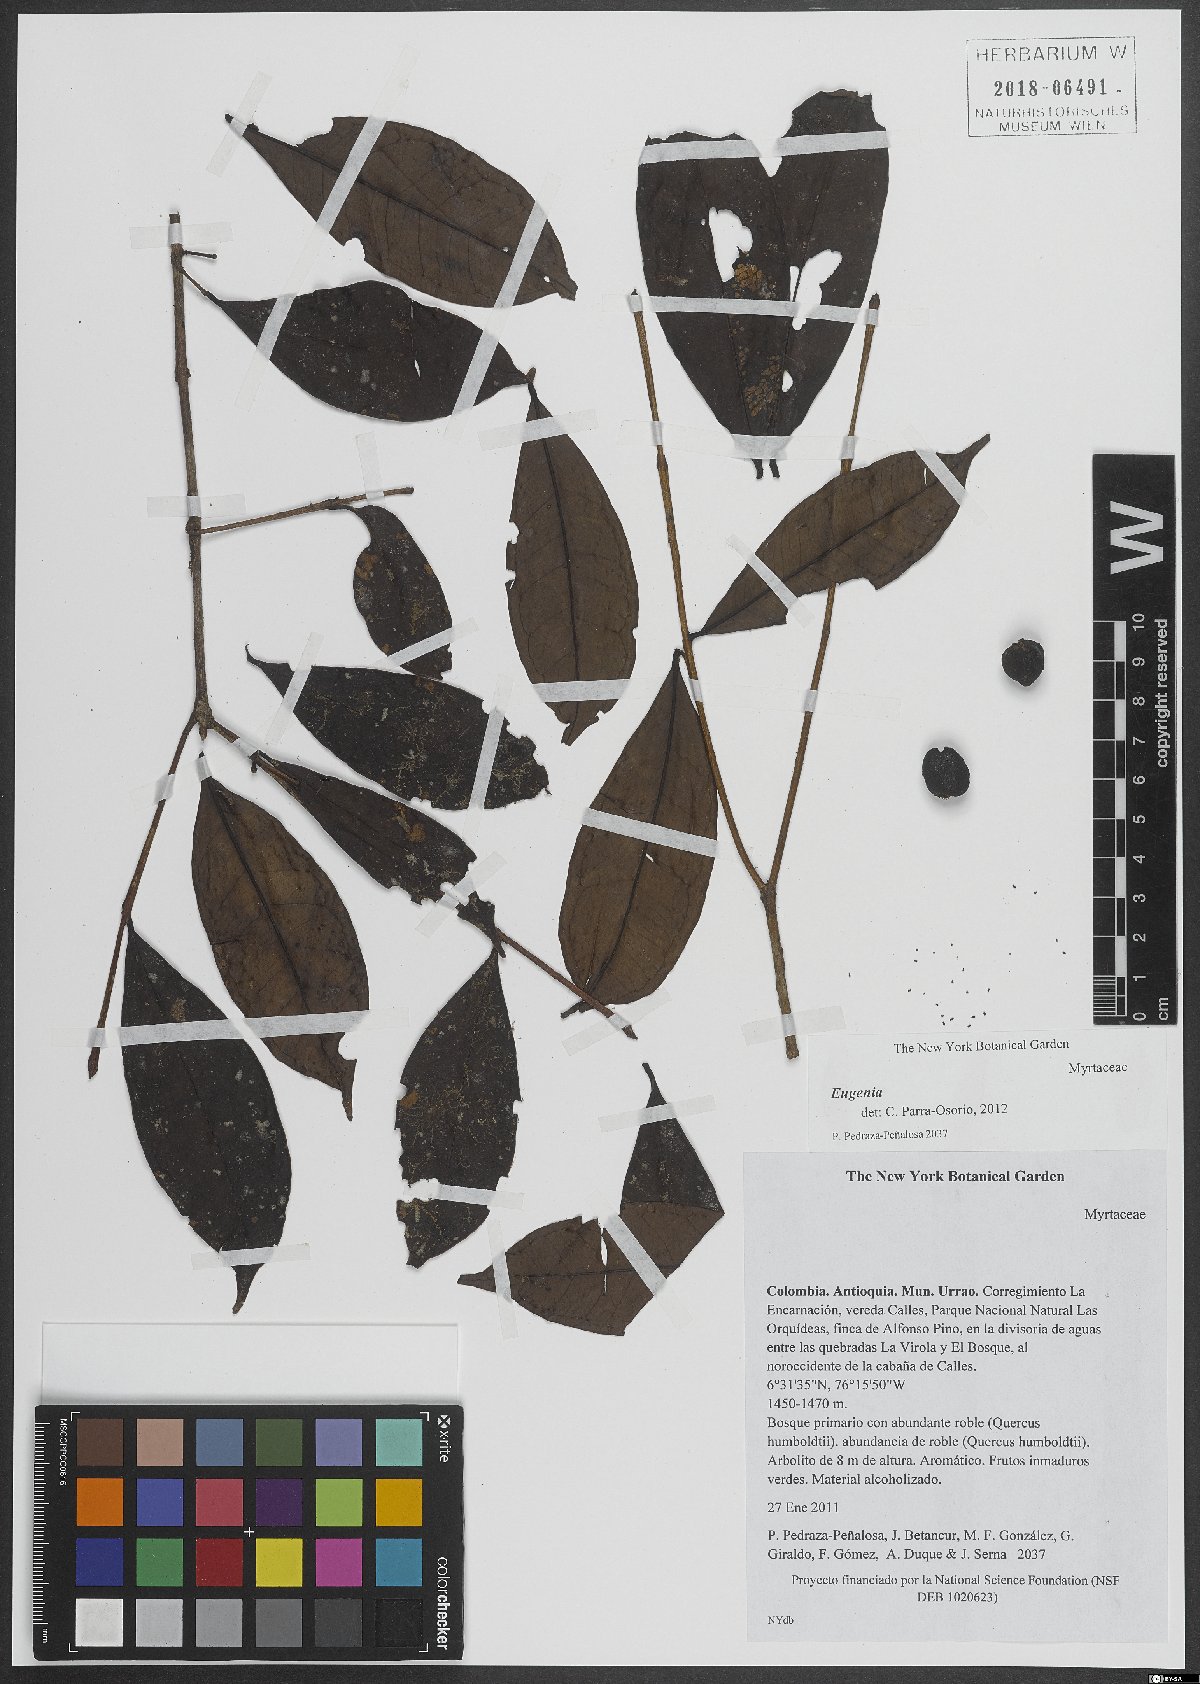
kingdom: Plantae
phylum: Tracheophyta
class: Magnoliopsida
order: Myrtales
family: Myrtaceae
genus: Eugenia
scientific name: Eugenia
